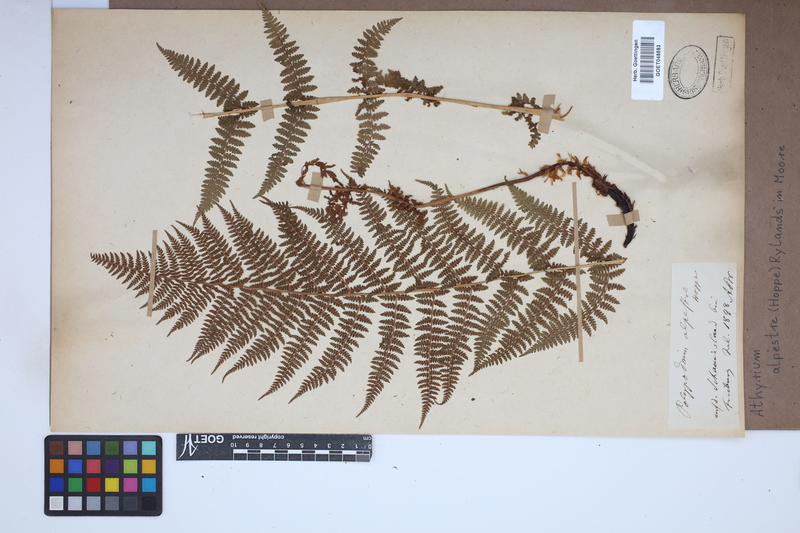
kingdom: Plantae
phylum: Tracheophyta
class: Polypodiopsida
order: Polypodiales
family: Athyriaceae
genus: Pseudathyrium
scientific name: Pseudathyrium alpestre
